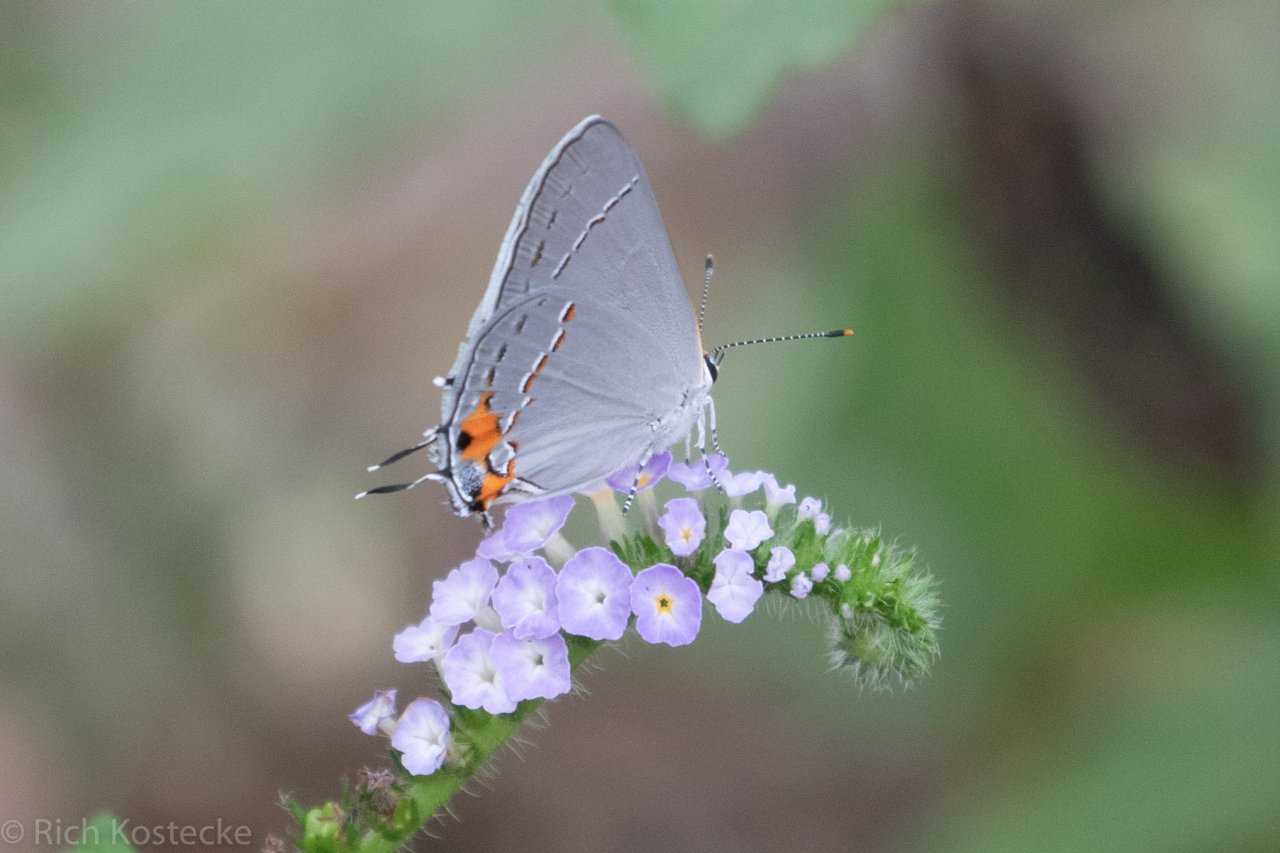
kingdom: Animalia
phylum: Arthropoda
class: Insecta
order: Lepidoptera
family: Lycaenidae
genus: Strymon
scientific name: Strymon melinus
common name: Gray Hairstreak
